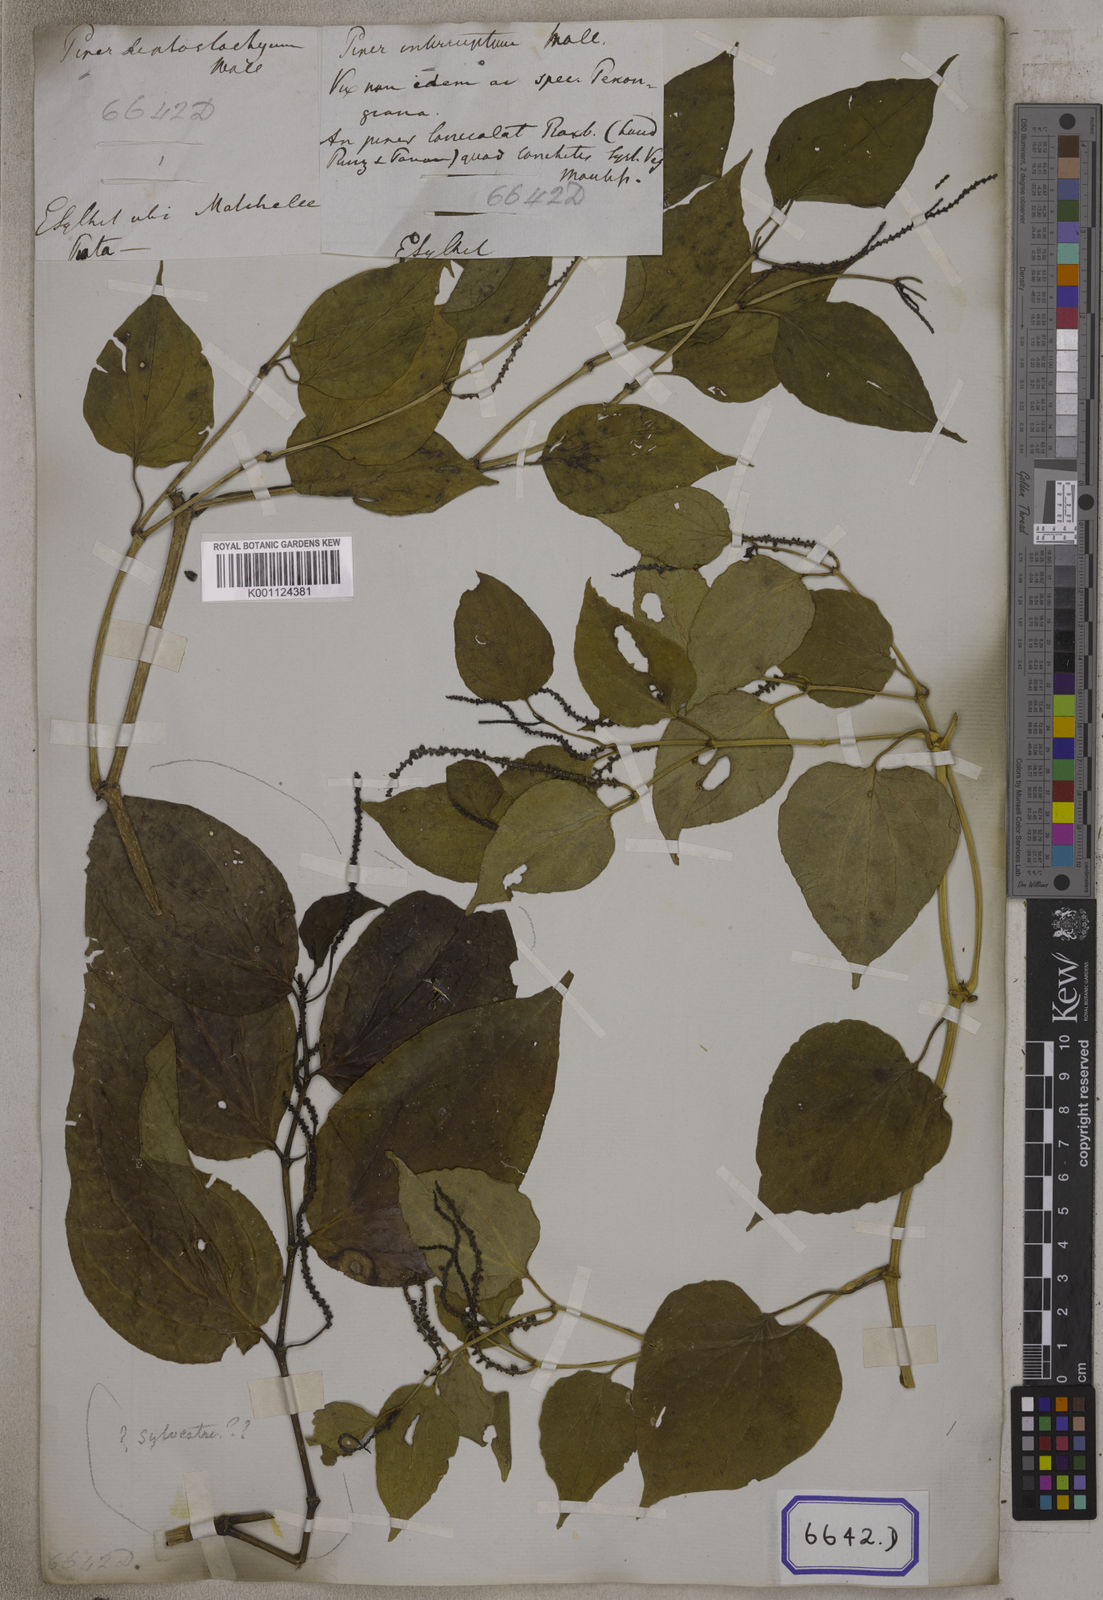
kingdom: Plantae
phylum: Tracheophyta
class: Magnoliopsida
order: Piperales
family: Piperaceae
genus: Piper
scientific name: Piper
